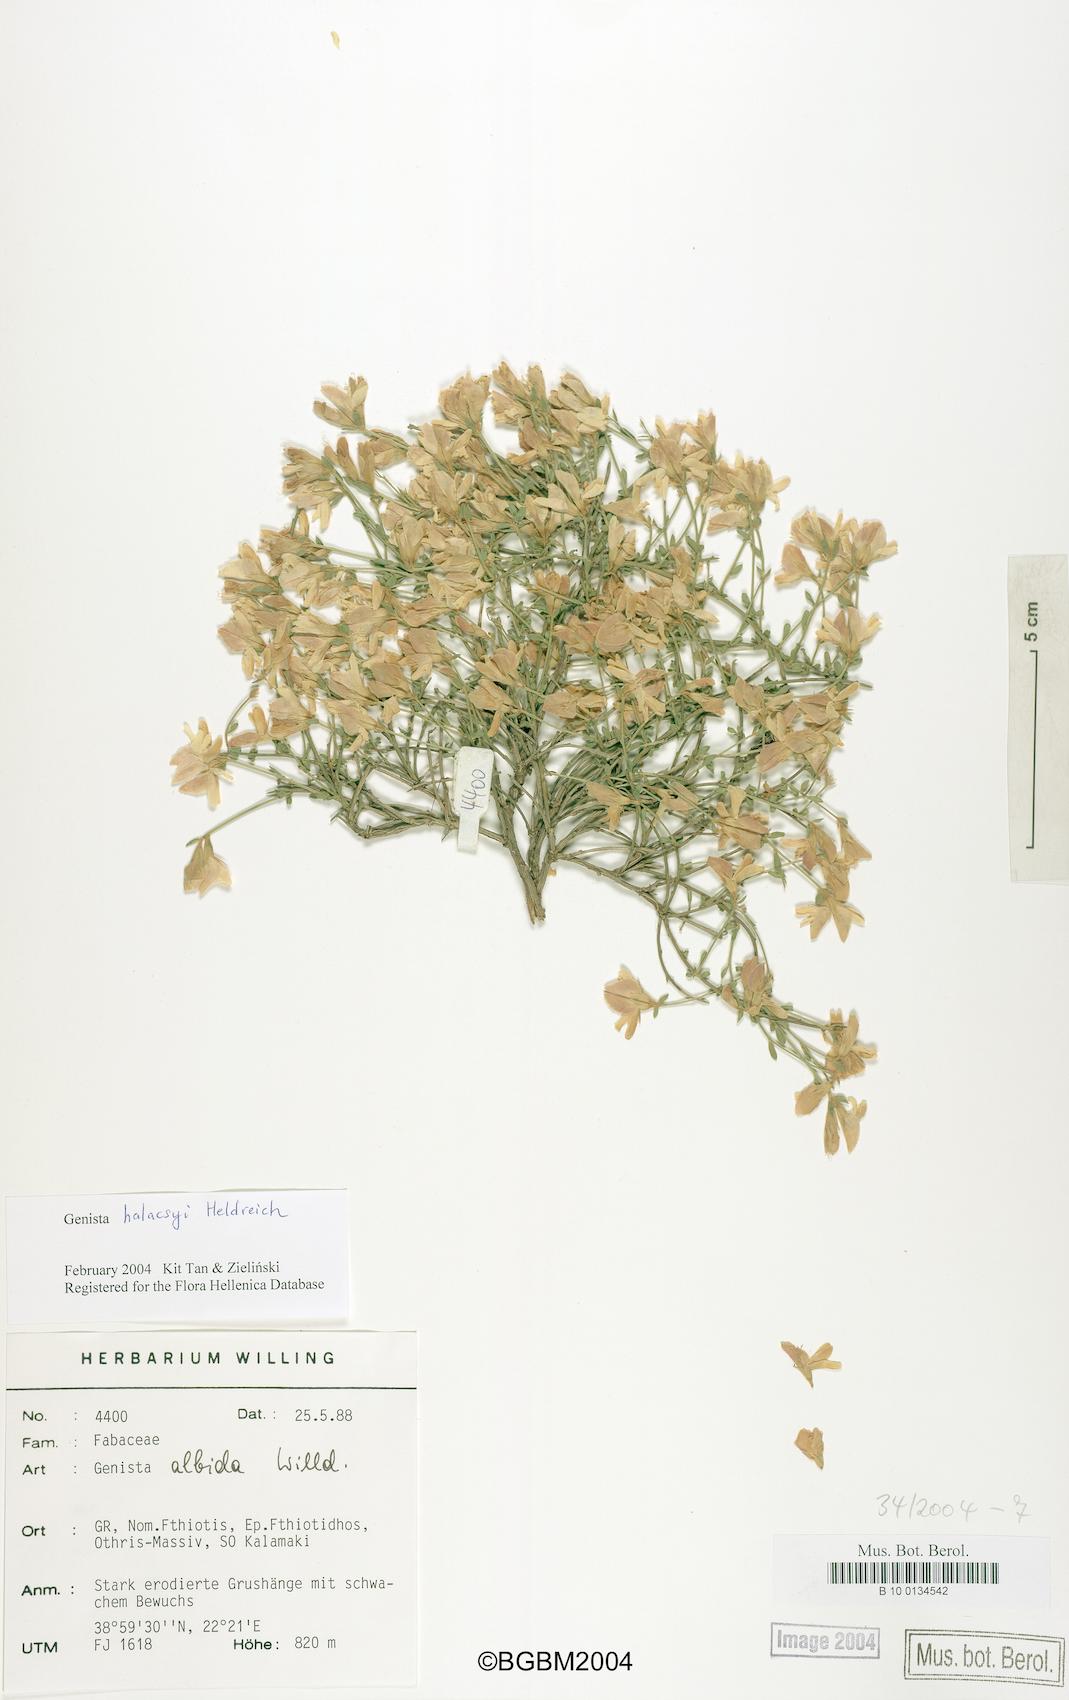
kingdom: Plantae
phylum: Tracheophyta
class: Magnoliopsida
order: Fabales
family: Fabaceae
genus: Genista
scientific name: Genista halacsyi
